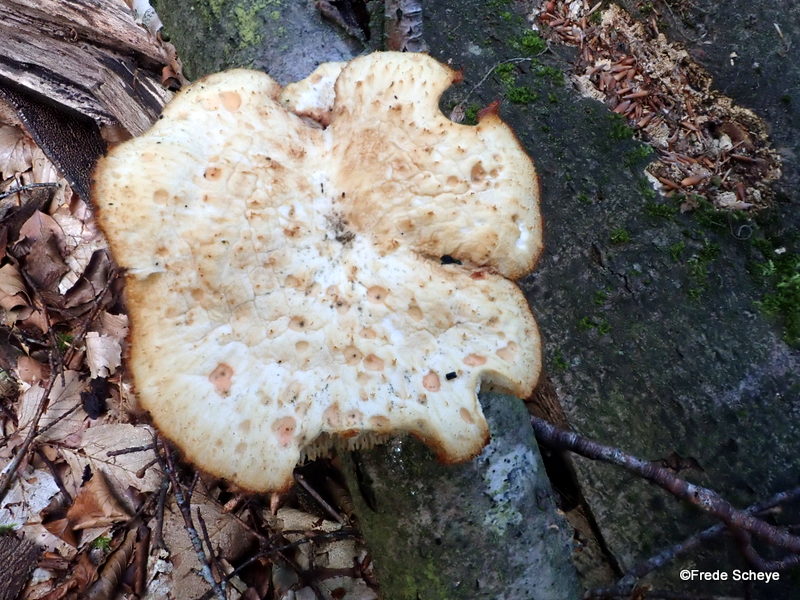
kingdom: Fungi
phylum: Basidiomycota
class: Agaricomycetes
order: Polyporales
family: Polyporaceae
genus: Polyporus
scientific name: Polyporus tuberaster
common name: knoldet stilkporesvamp
